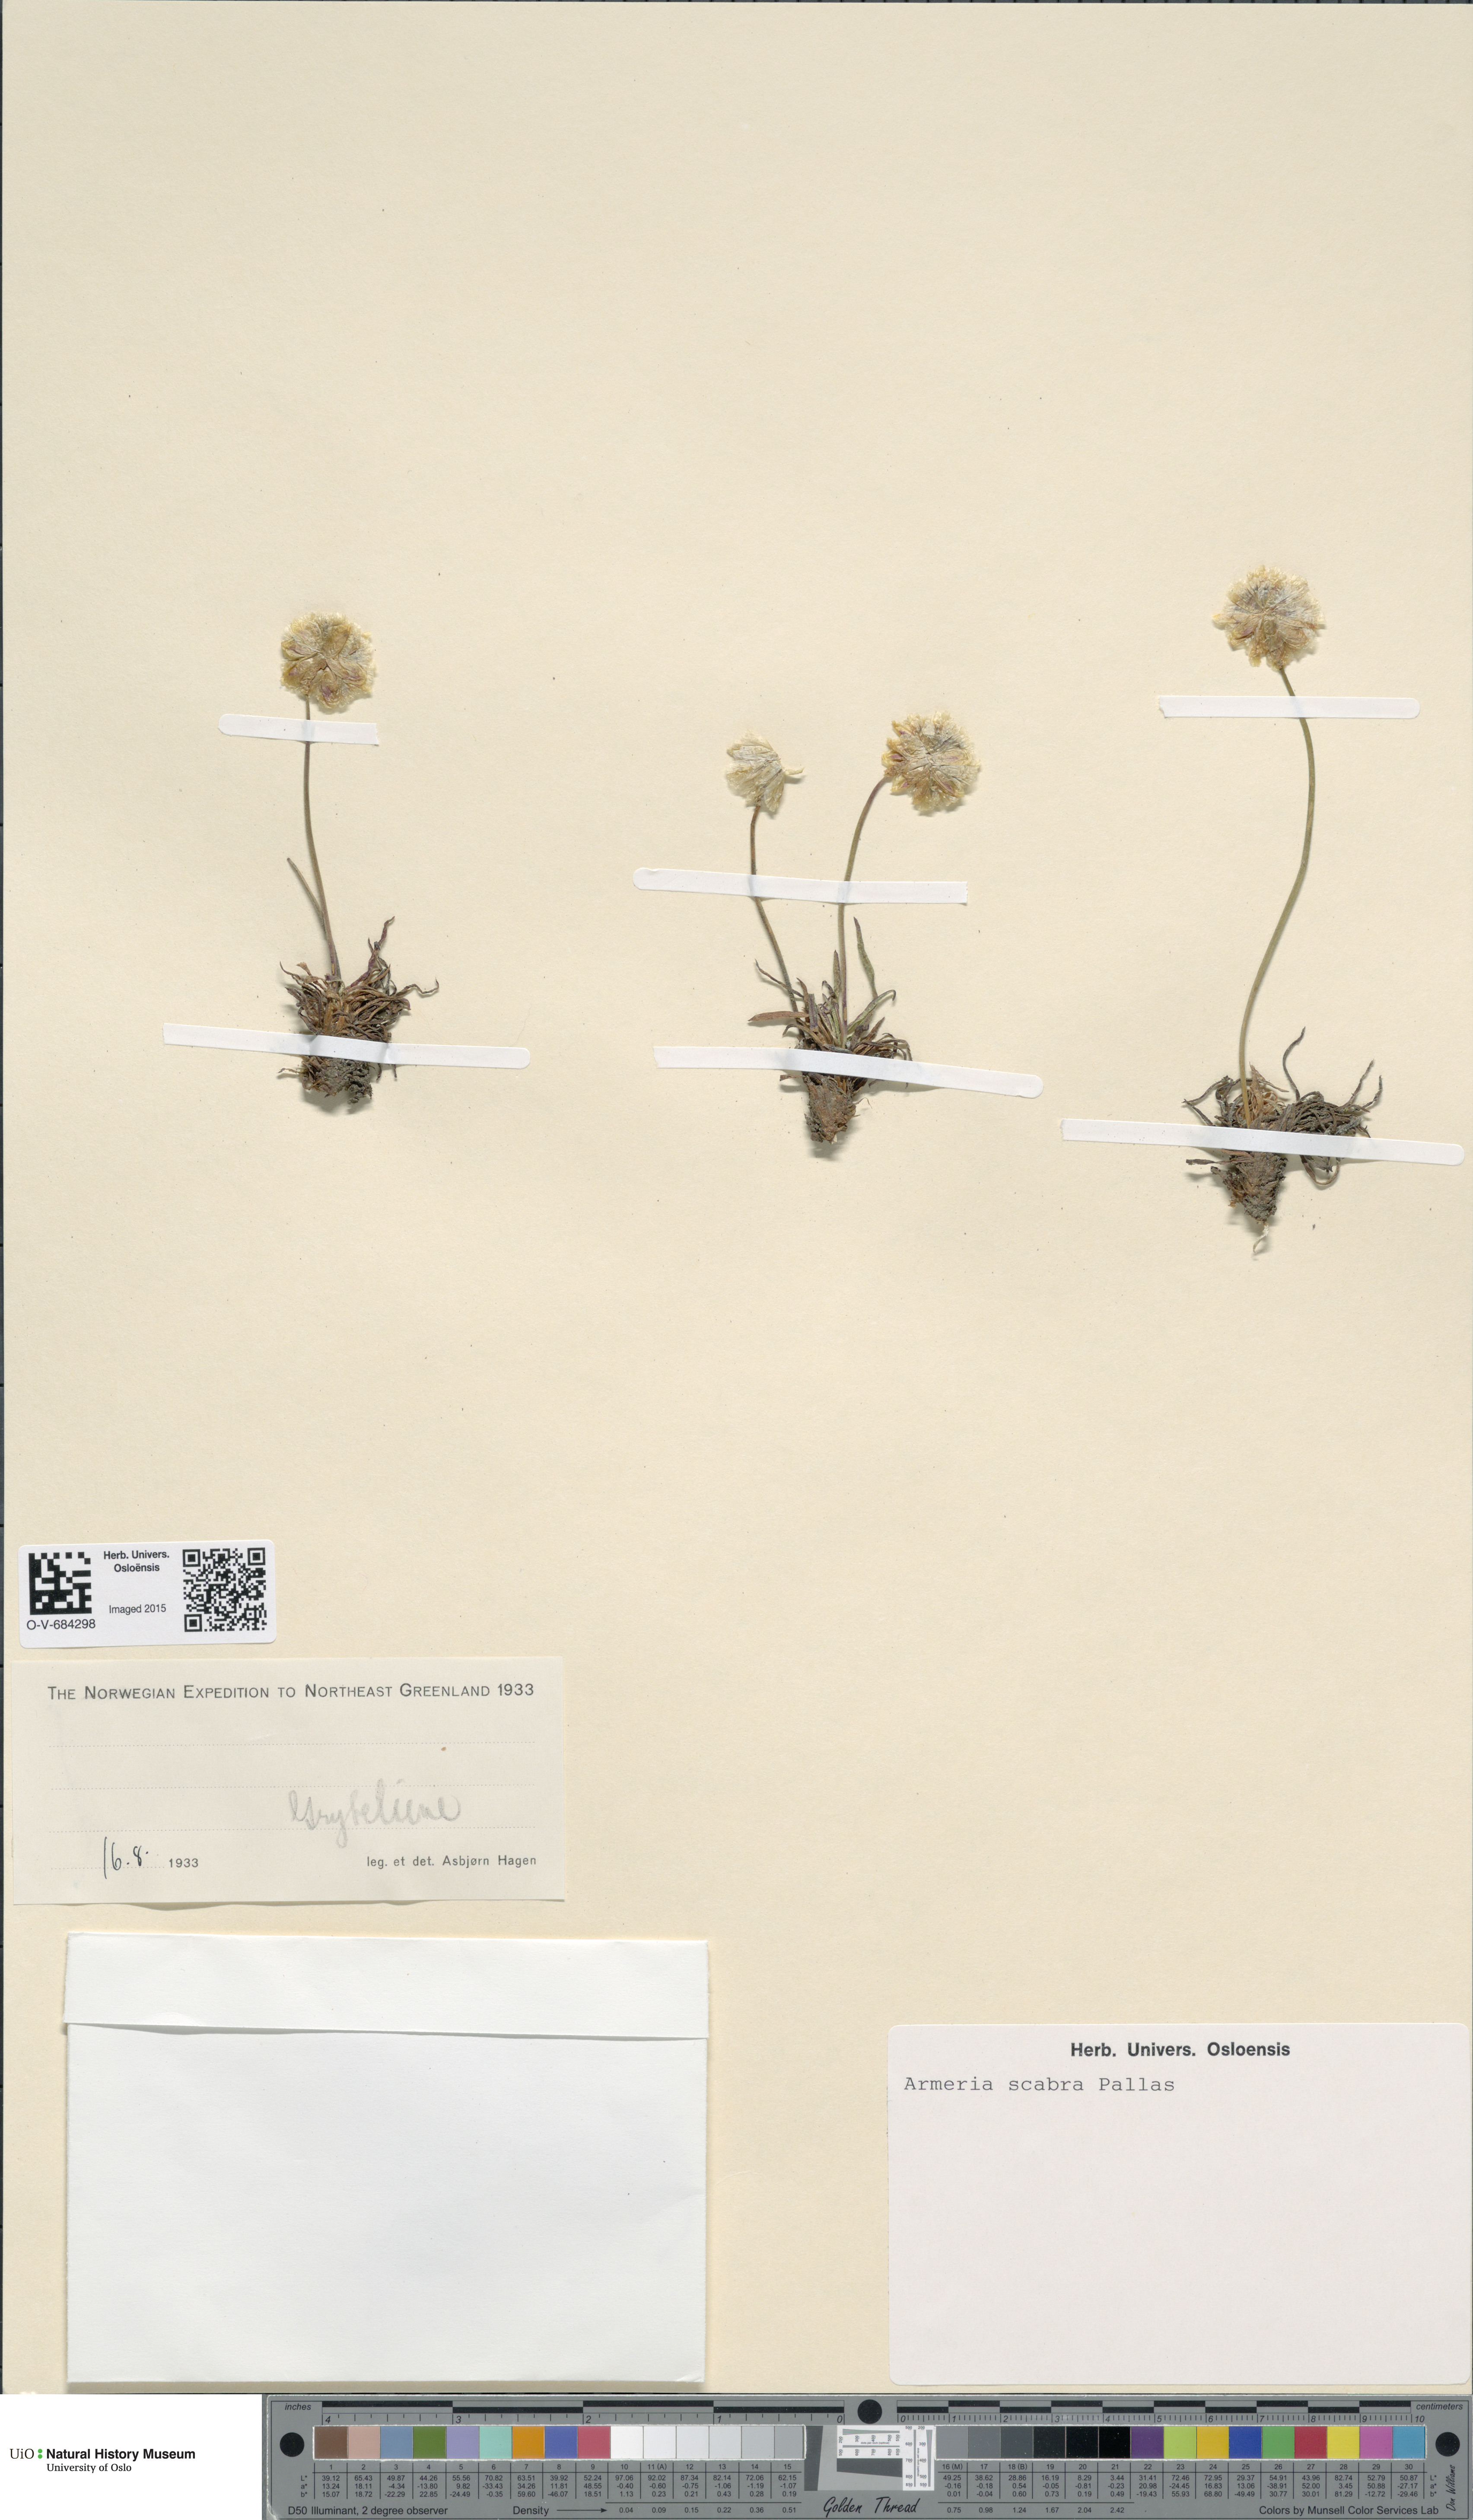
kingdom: Plantae
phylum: Tracheophyta
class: Magnoliopsida
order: Caryophyllales
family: Plumbaginaceae
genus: Armeria
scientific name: Armeria maritima
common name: Thrift
